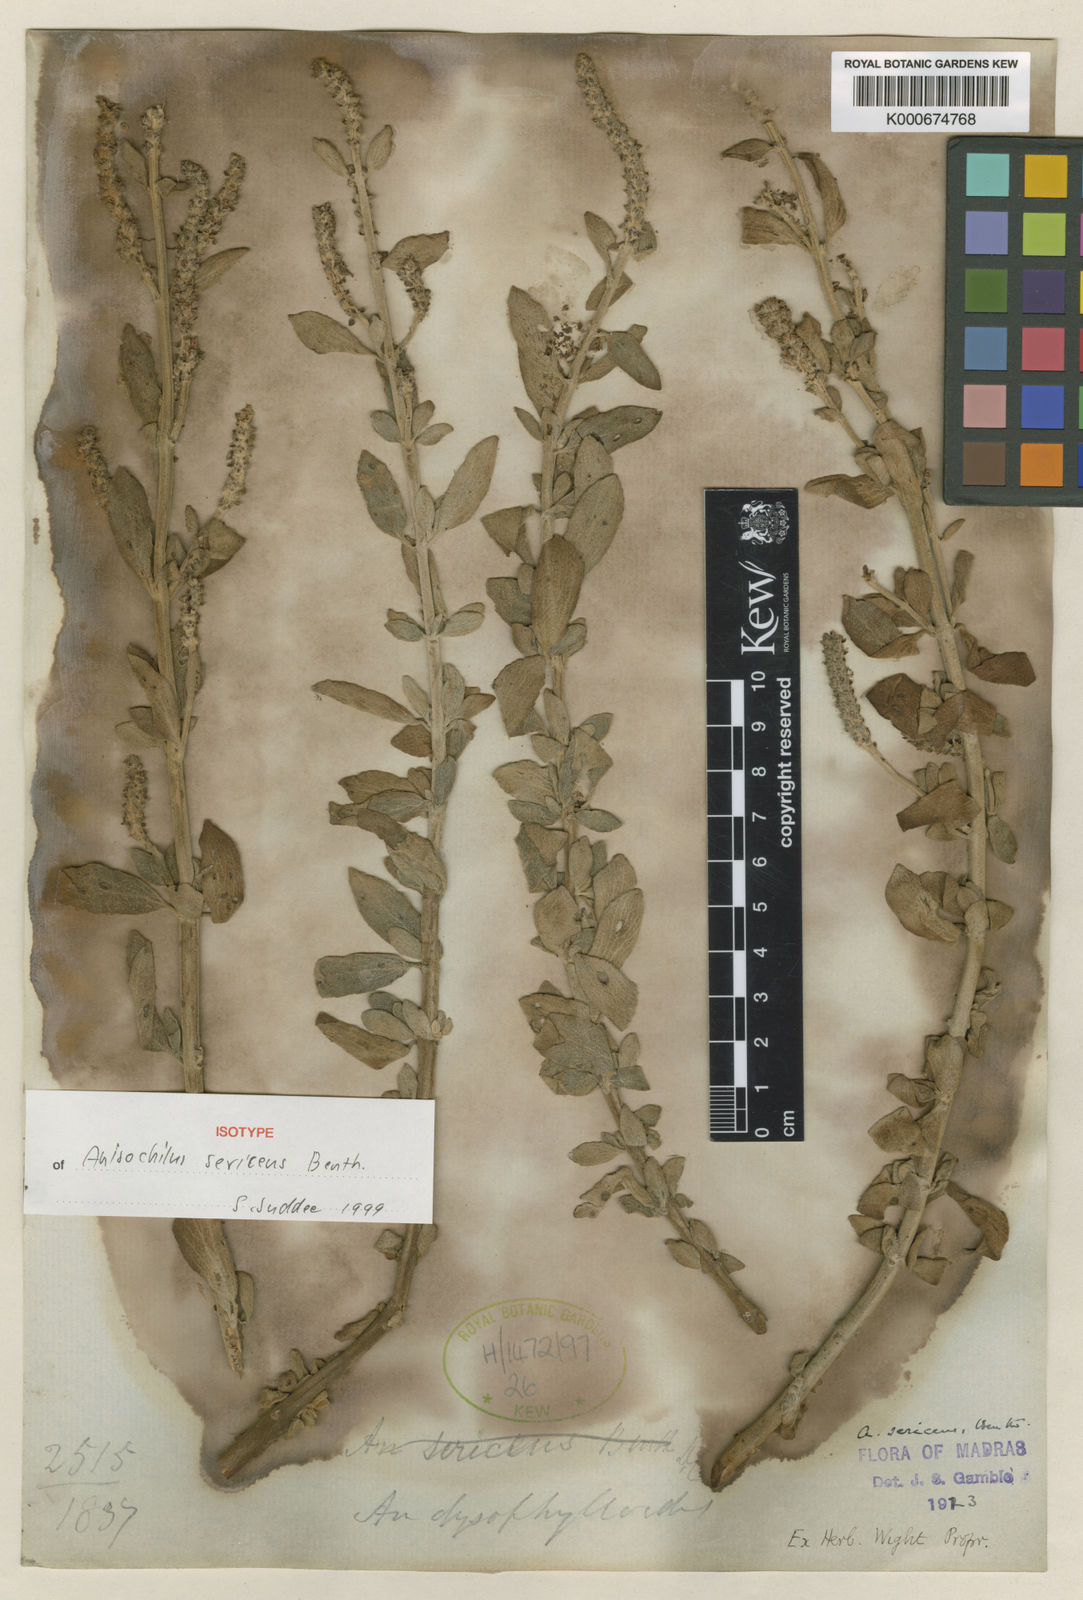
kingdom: Plantae
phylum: Tracheophyta
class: Magnoliopsida
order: Lamiales
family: Lamiaceae
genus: Coleus
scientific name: Coleus dysophylloides
